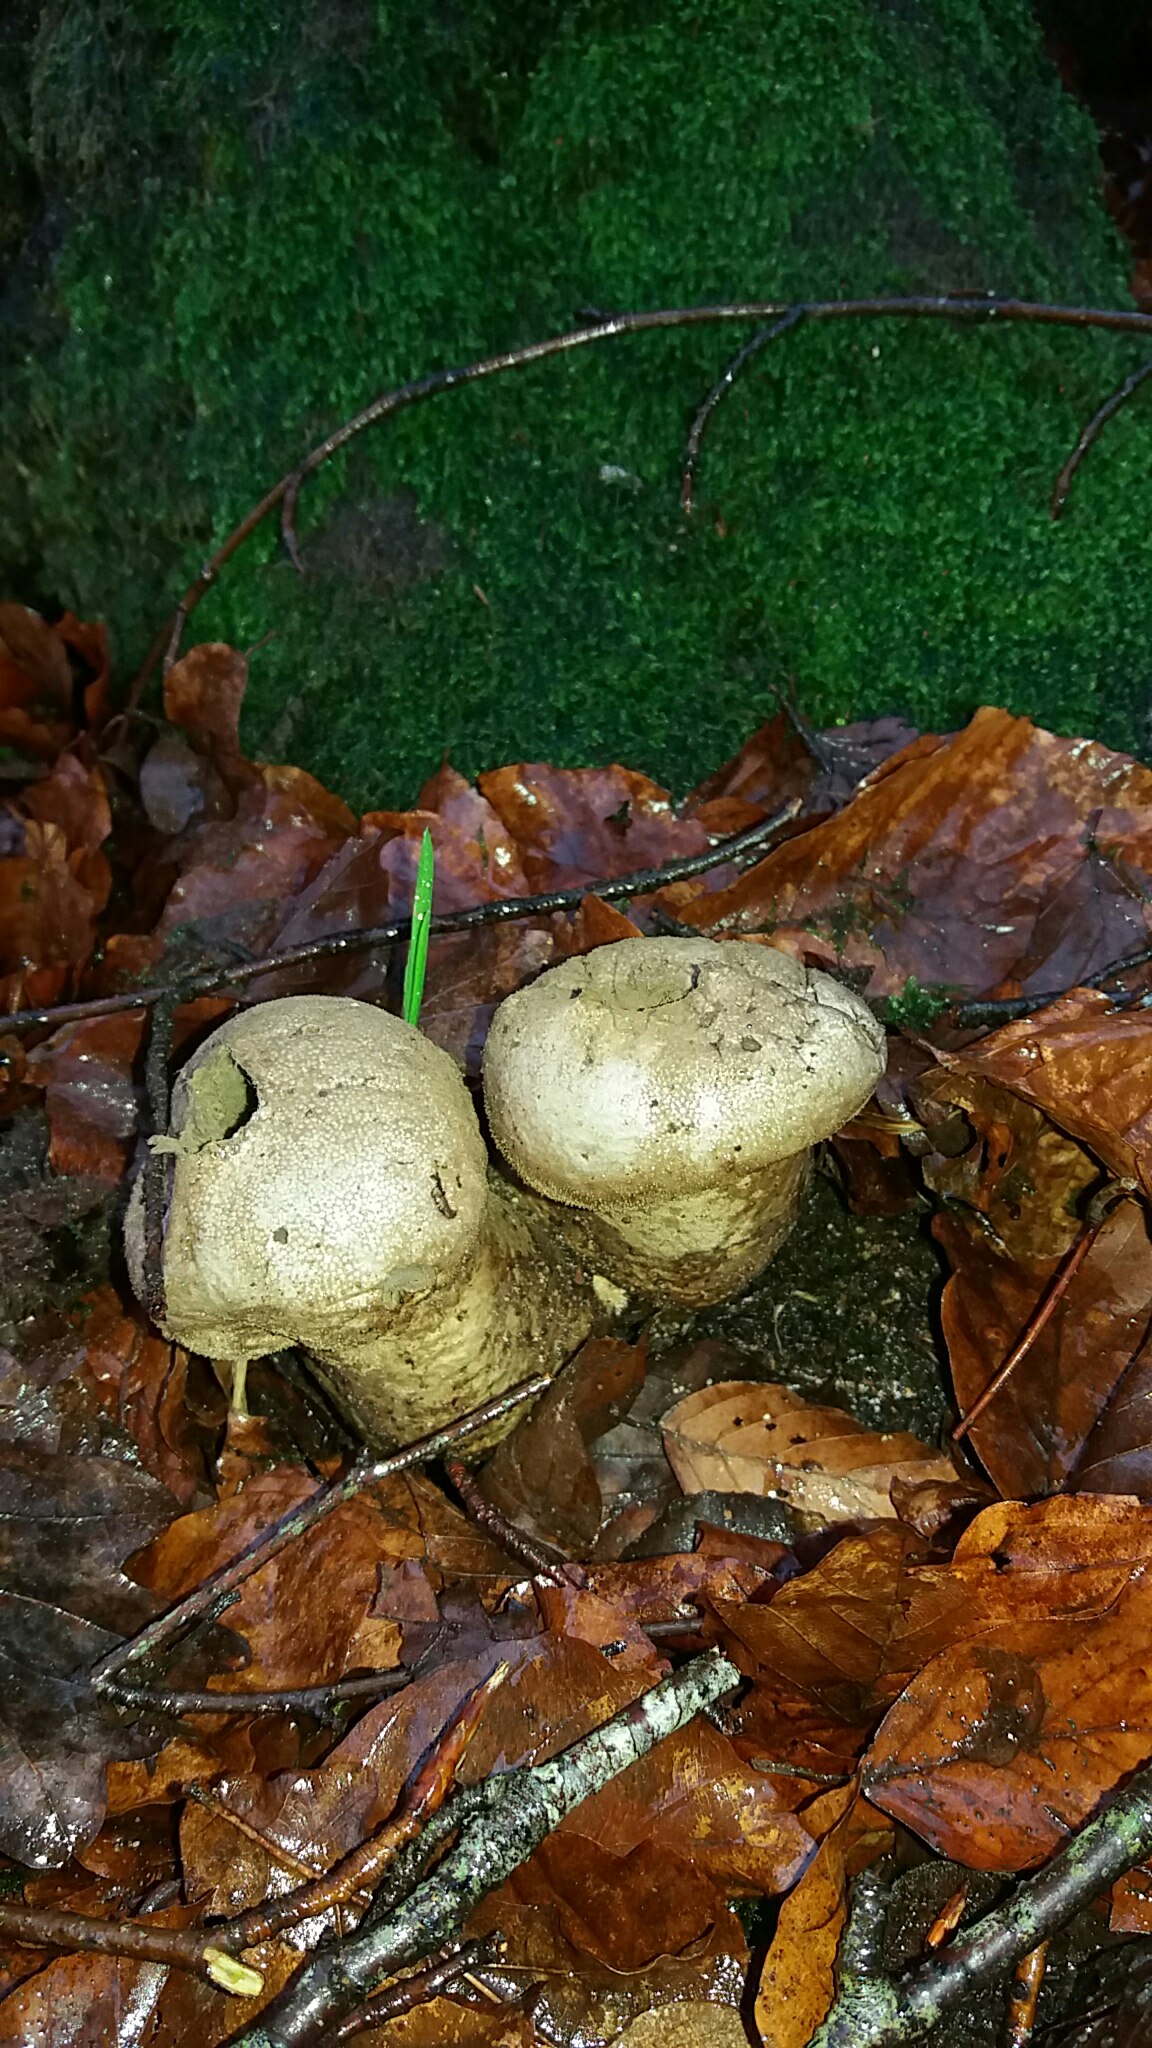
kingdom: Fungi
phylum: Basidiomycota
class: Agaricomycetes
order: Agaricales
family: Lycoperdaceae
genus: Lycoperdon
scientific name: Lycoperdon perlatum
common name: krystal-støvbold
